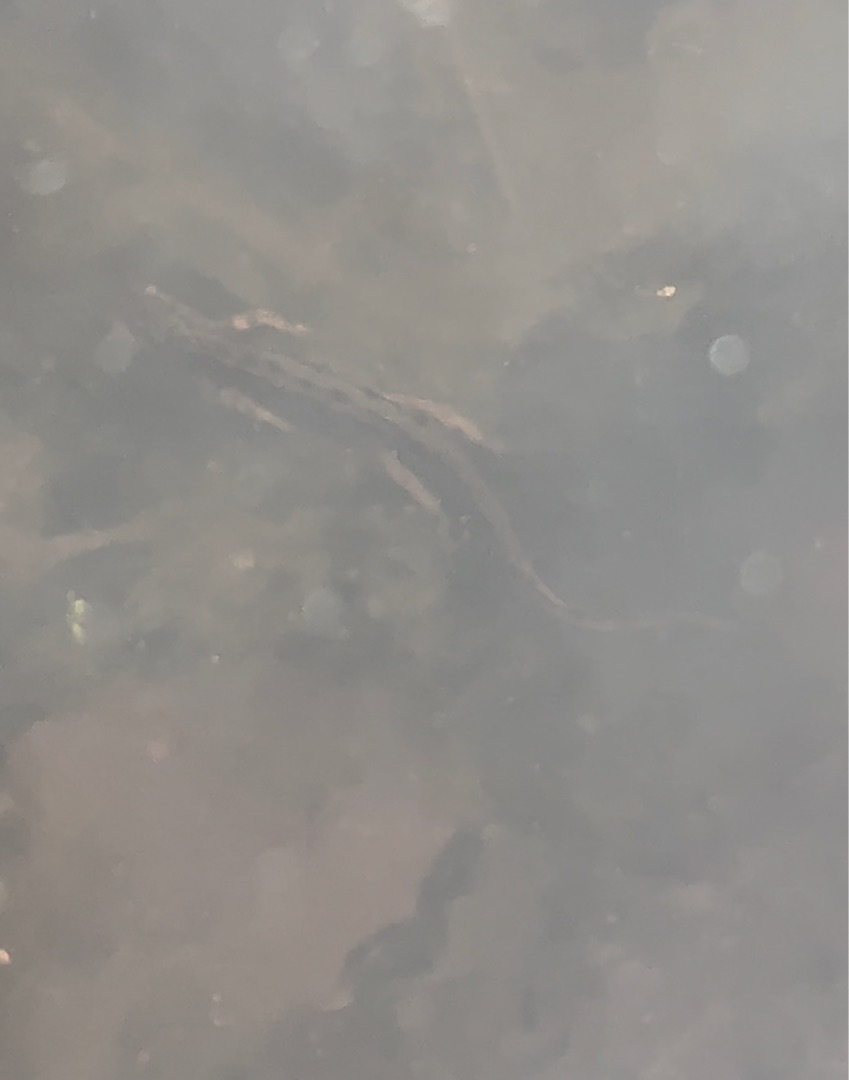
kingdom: Animalia
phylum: Chordata
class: Amphibia
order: Caudata
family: Salamandridae
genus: Lissotriton
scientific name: Lissotriton vulgaris
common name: Lille vandsalamander
